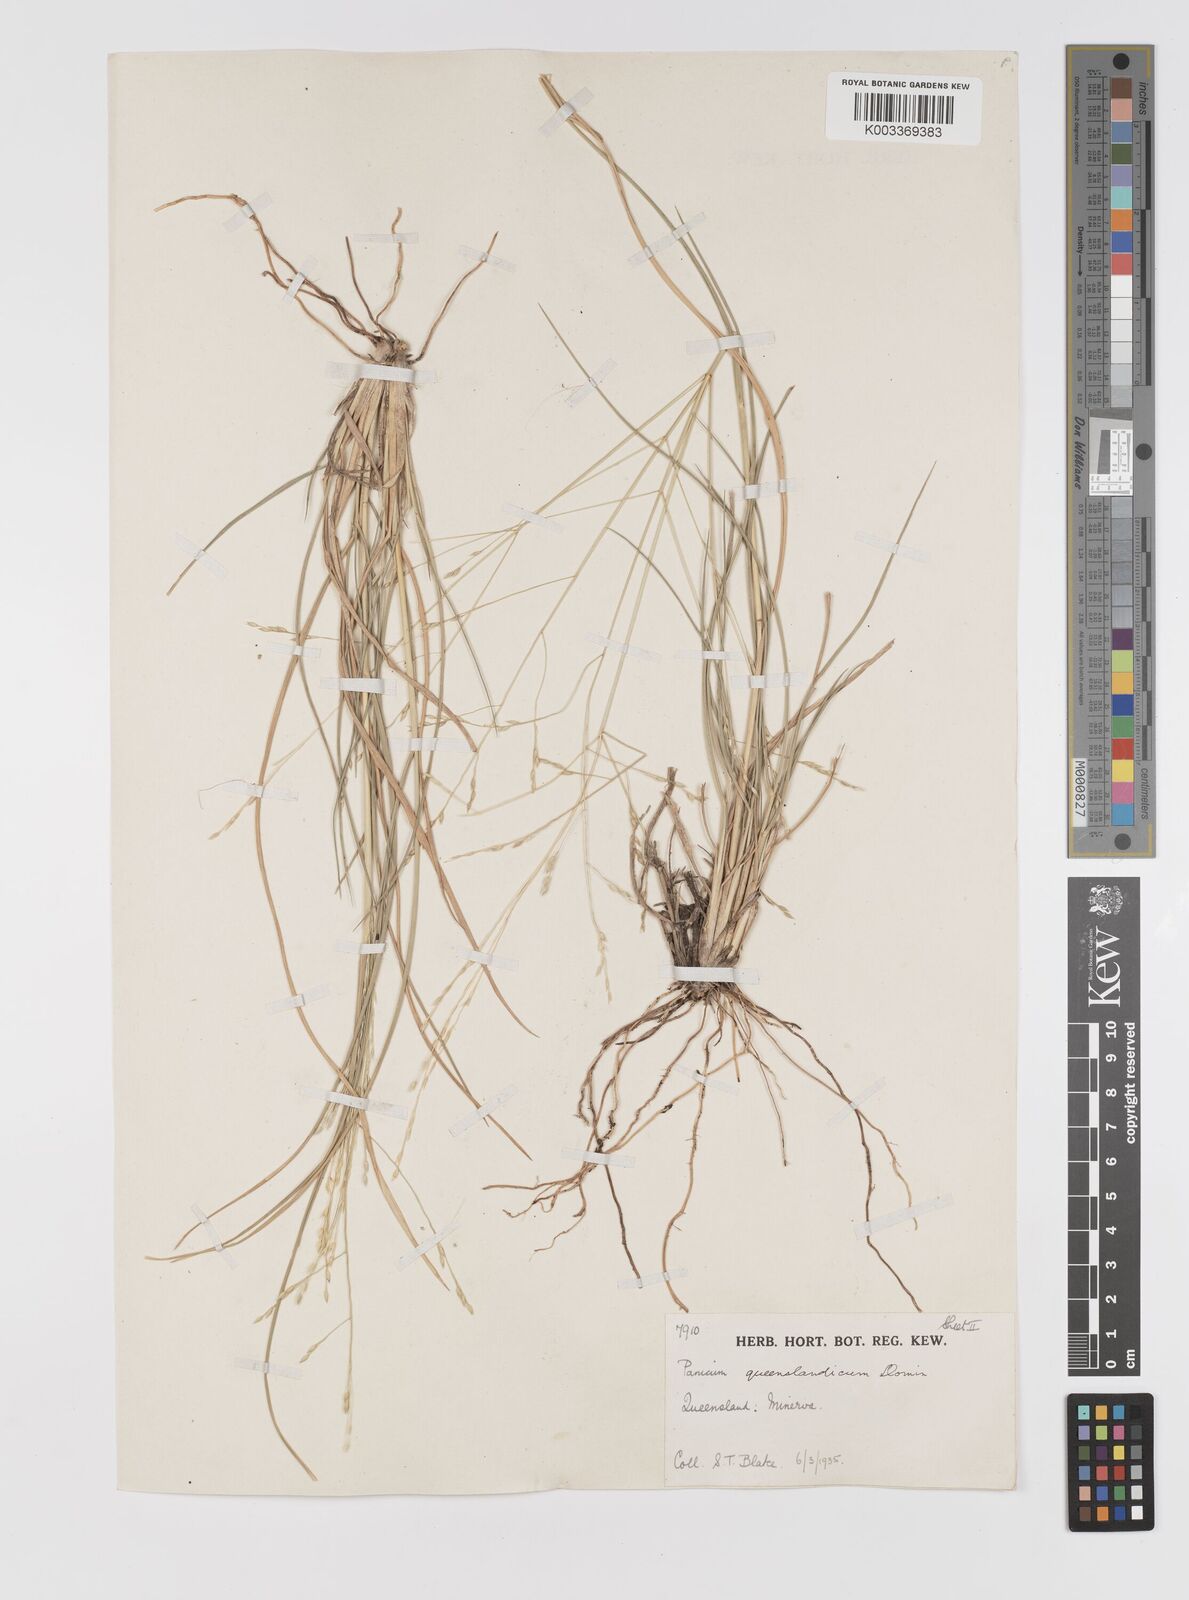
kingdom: Plantae
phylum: Tracheophyta
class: Liliopsida
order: Poales
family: Poaceae
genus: Panicum
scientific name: Panicum queenslandicum
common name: Yabila grass
